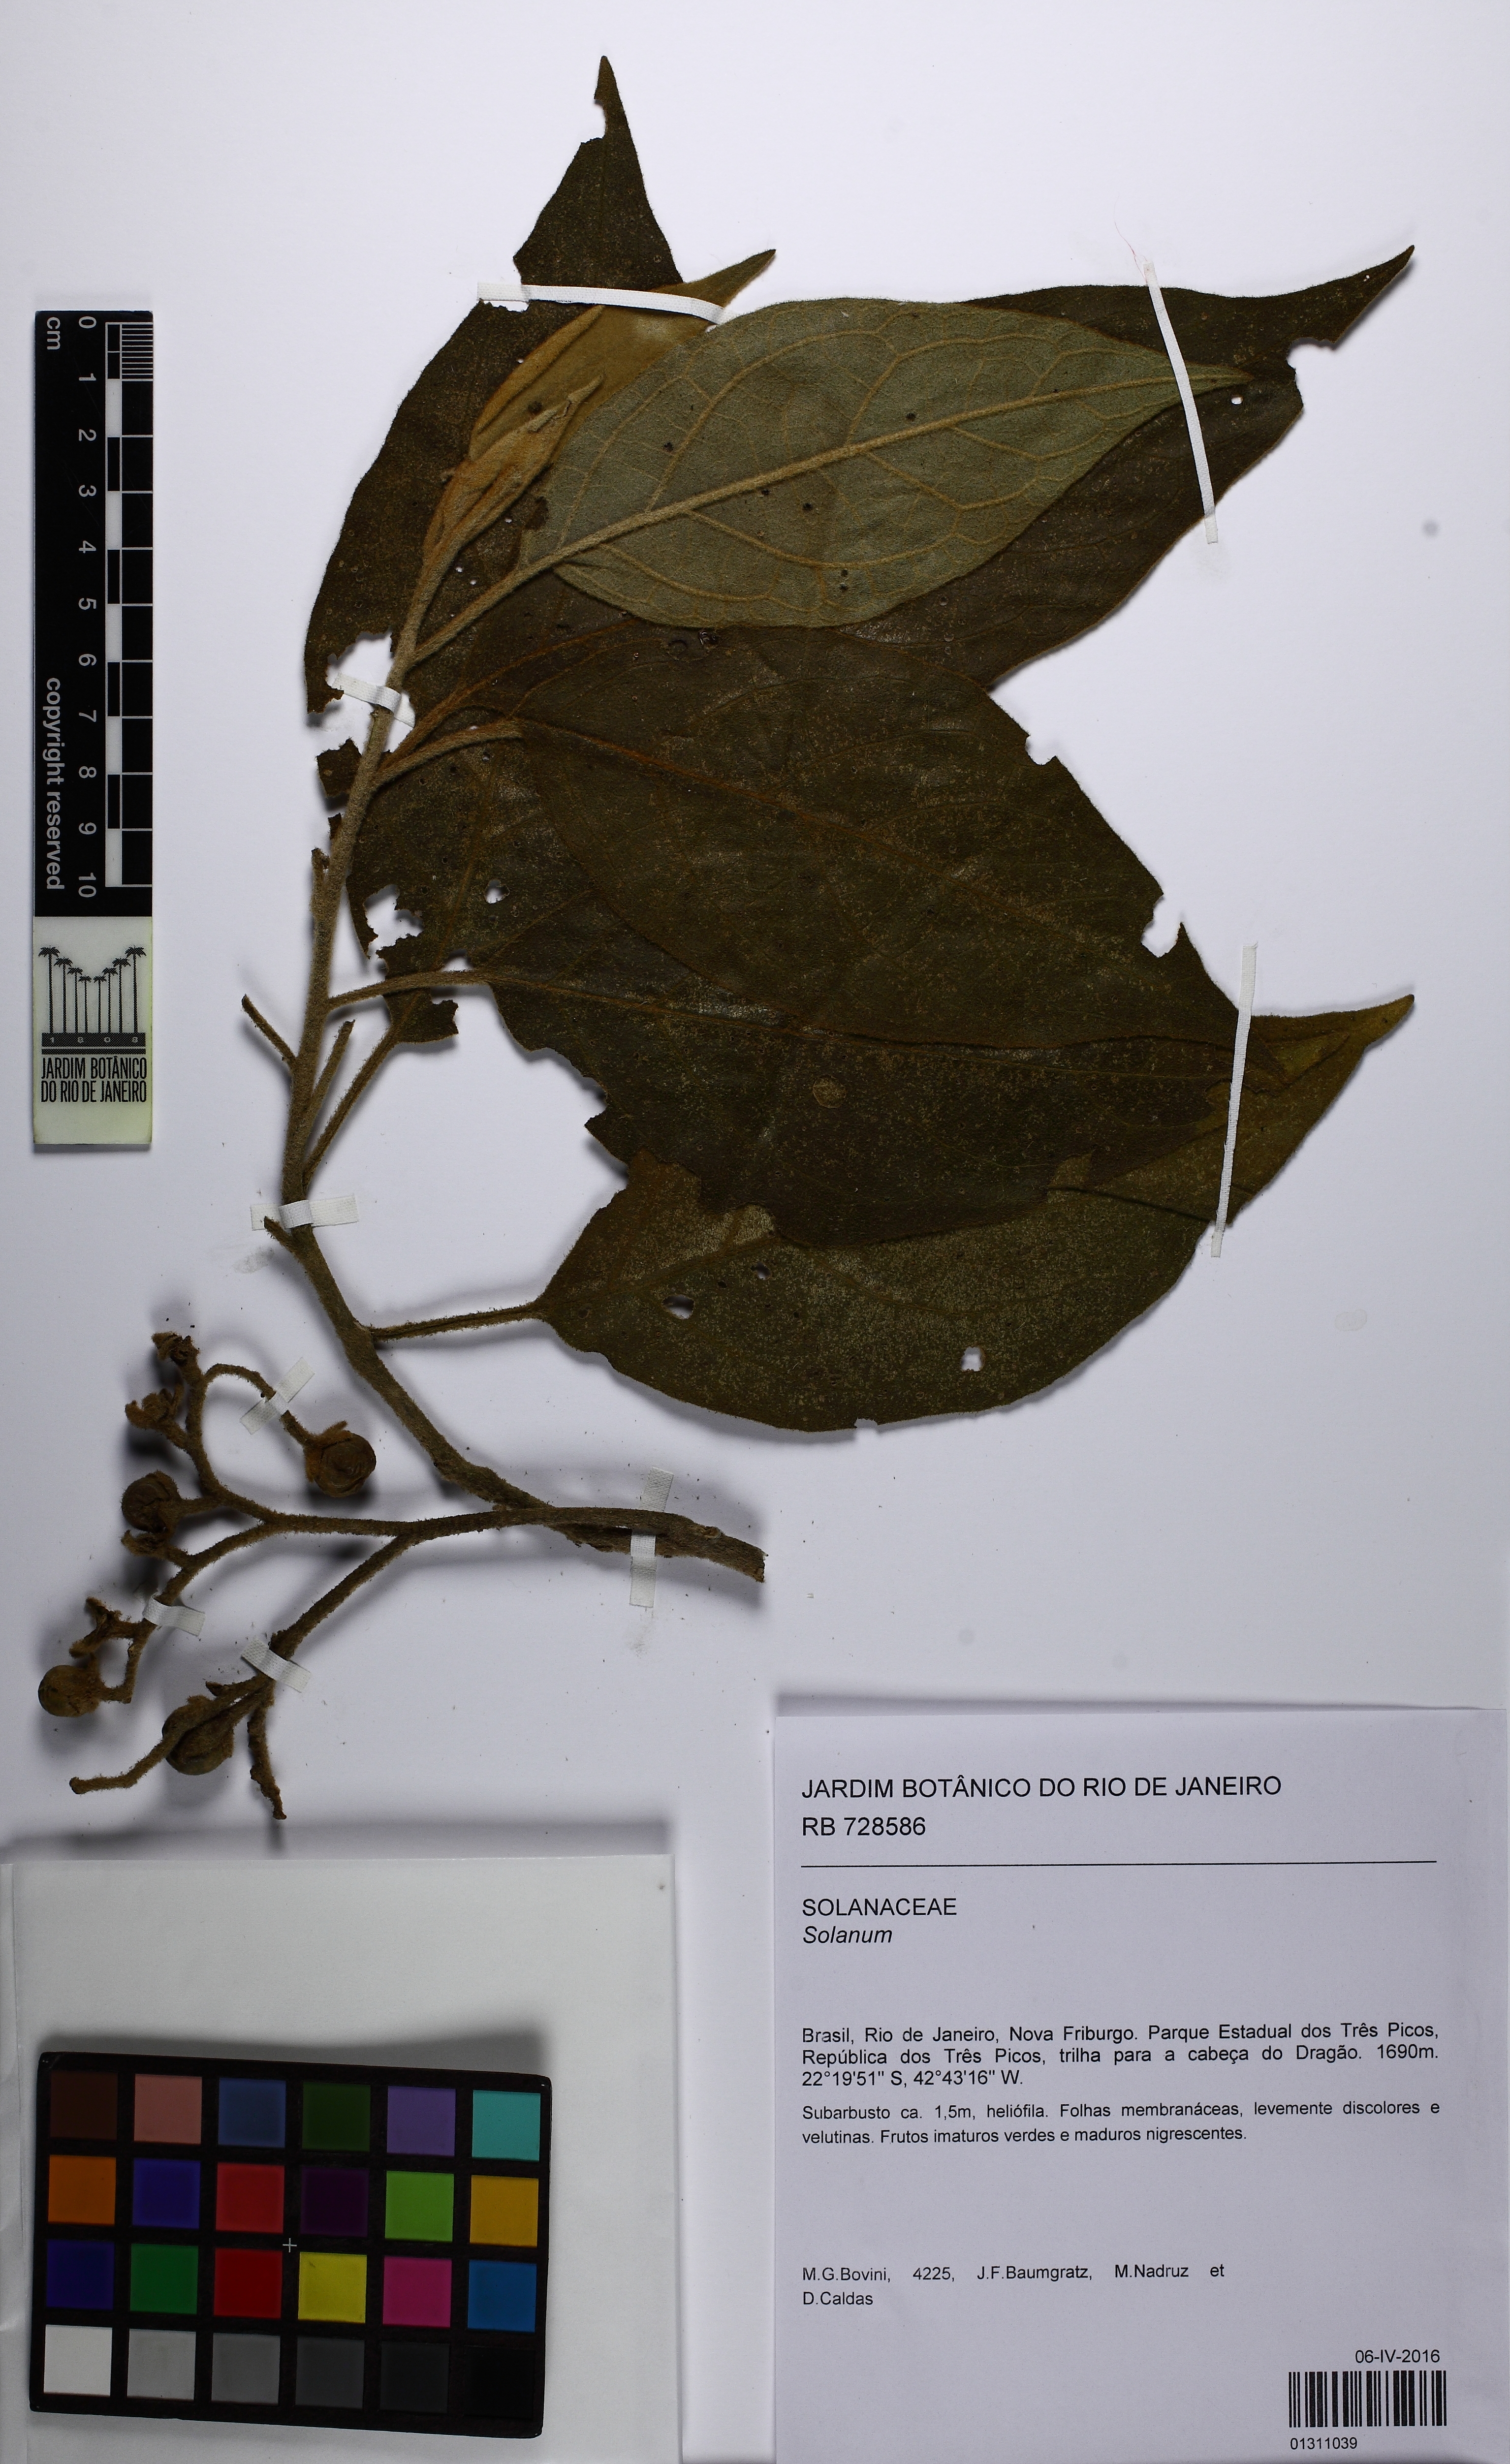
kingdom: Plantae
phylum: Tracheophyta
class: Magnoliopsida
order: Solanales
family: Solanaceae
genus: Solanum
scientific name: Solanum velleum
